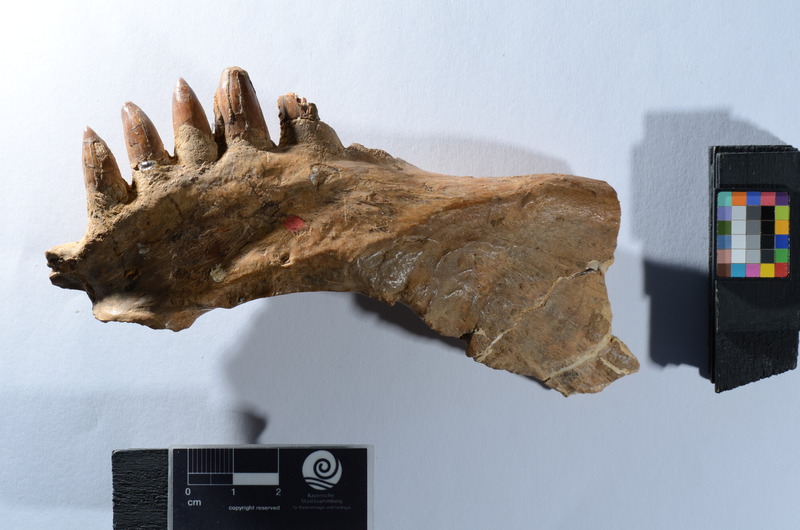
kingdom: Animalia
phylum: Chordata
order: Amiiformes
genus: Stromerichthys
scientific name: Stromerichthys aethiopicus
